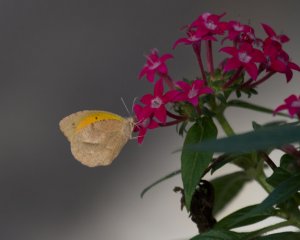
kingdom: Animalia
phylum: Arthropoda
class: Insecta
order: Lepidoptera
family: Pieridae
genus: Abaeis
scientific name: Abaeis nicippe
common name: Sleepy Orange
